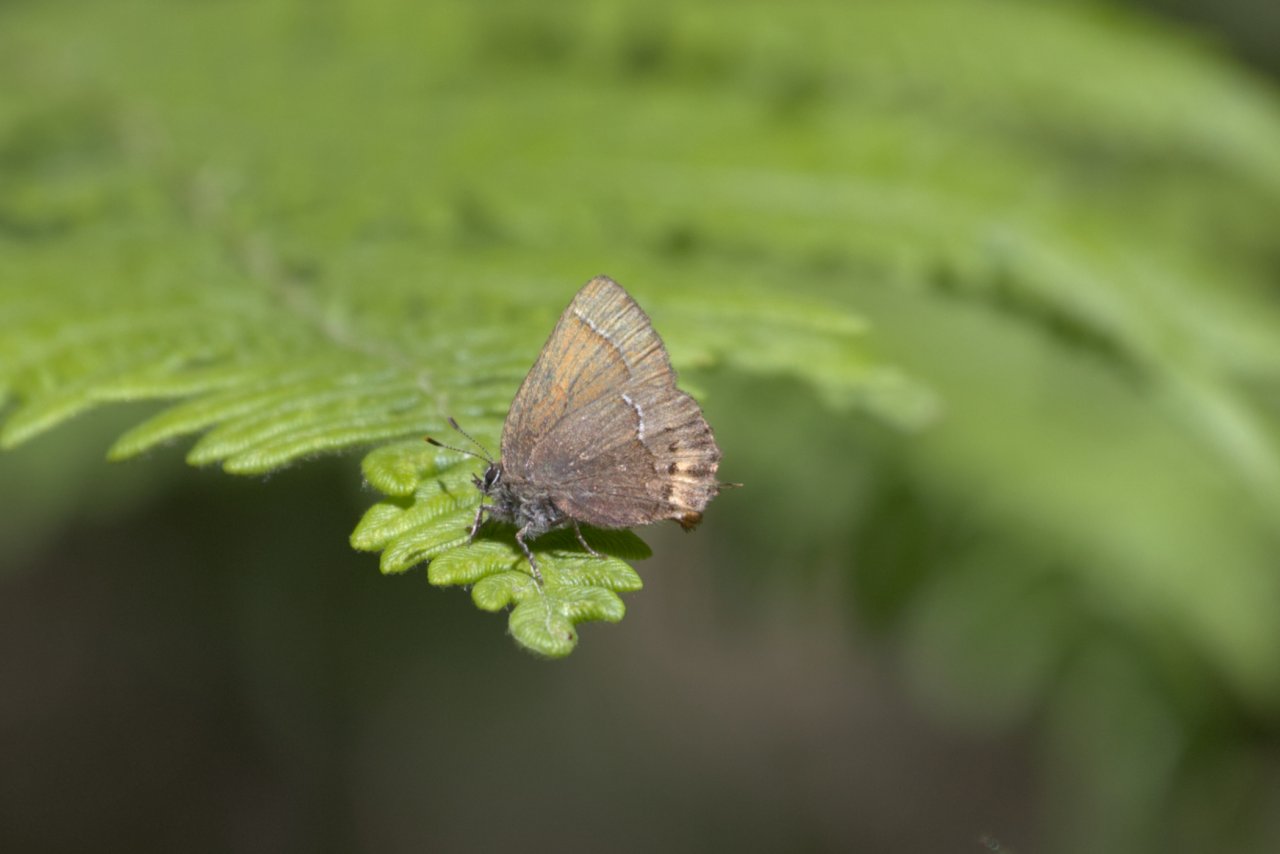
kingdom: Animalia
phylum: Arthropoda
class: Insecta
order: Lepidoptera
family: Lycaenidae
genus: Mitoura
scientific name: Mitoura gryneus
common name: Juniper Hairstreak
